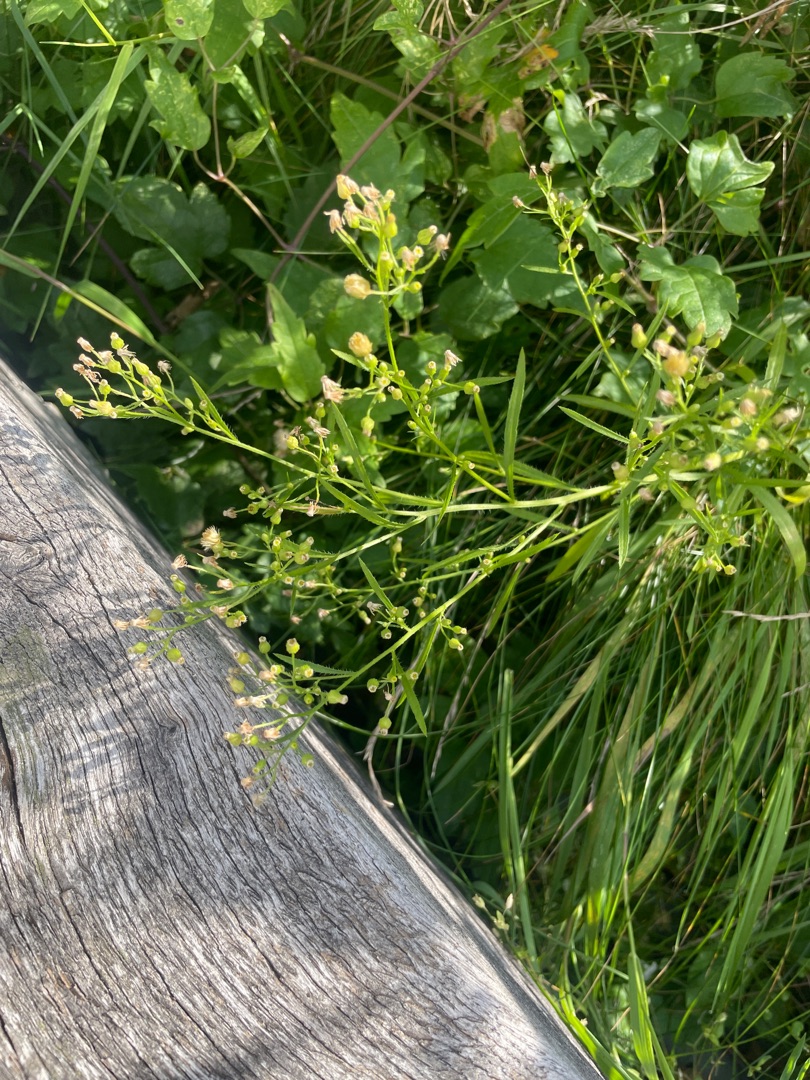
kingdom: Plantae
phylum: Tracheophyta
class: Magnoliopsida
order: Asterales
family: Asteraceae
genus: Erigeron
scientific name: Erigeron canadensis
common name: Kanadisk bakkestjerne
